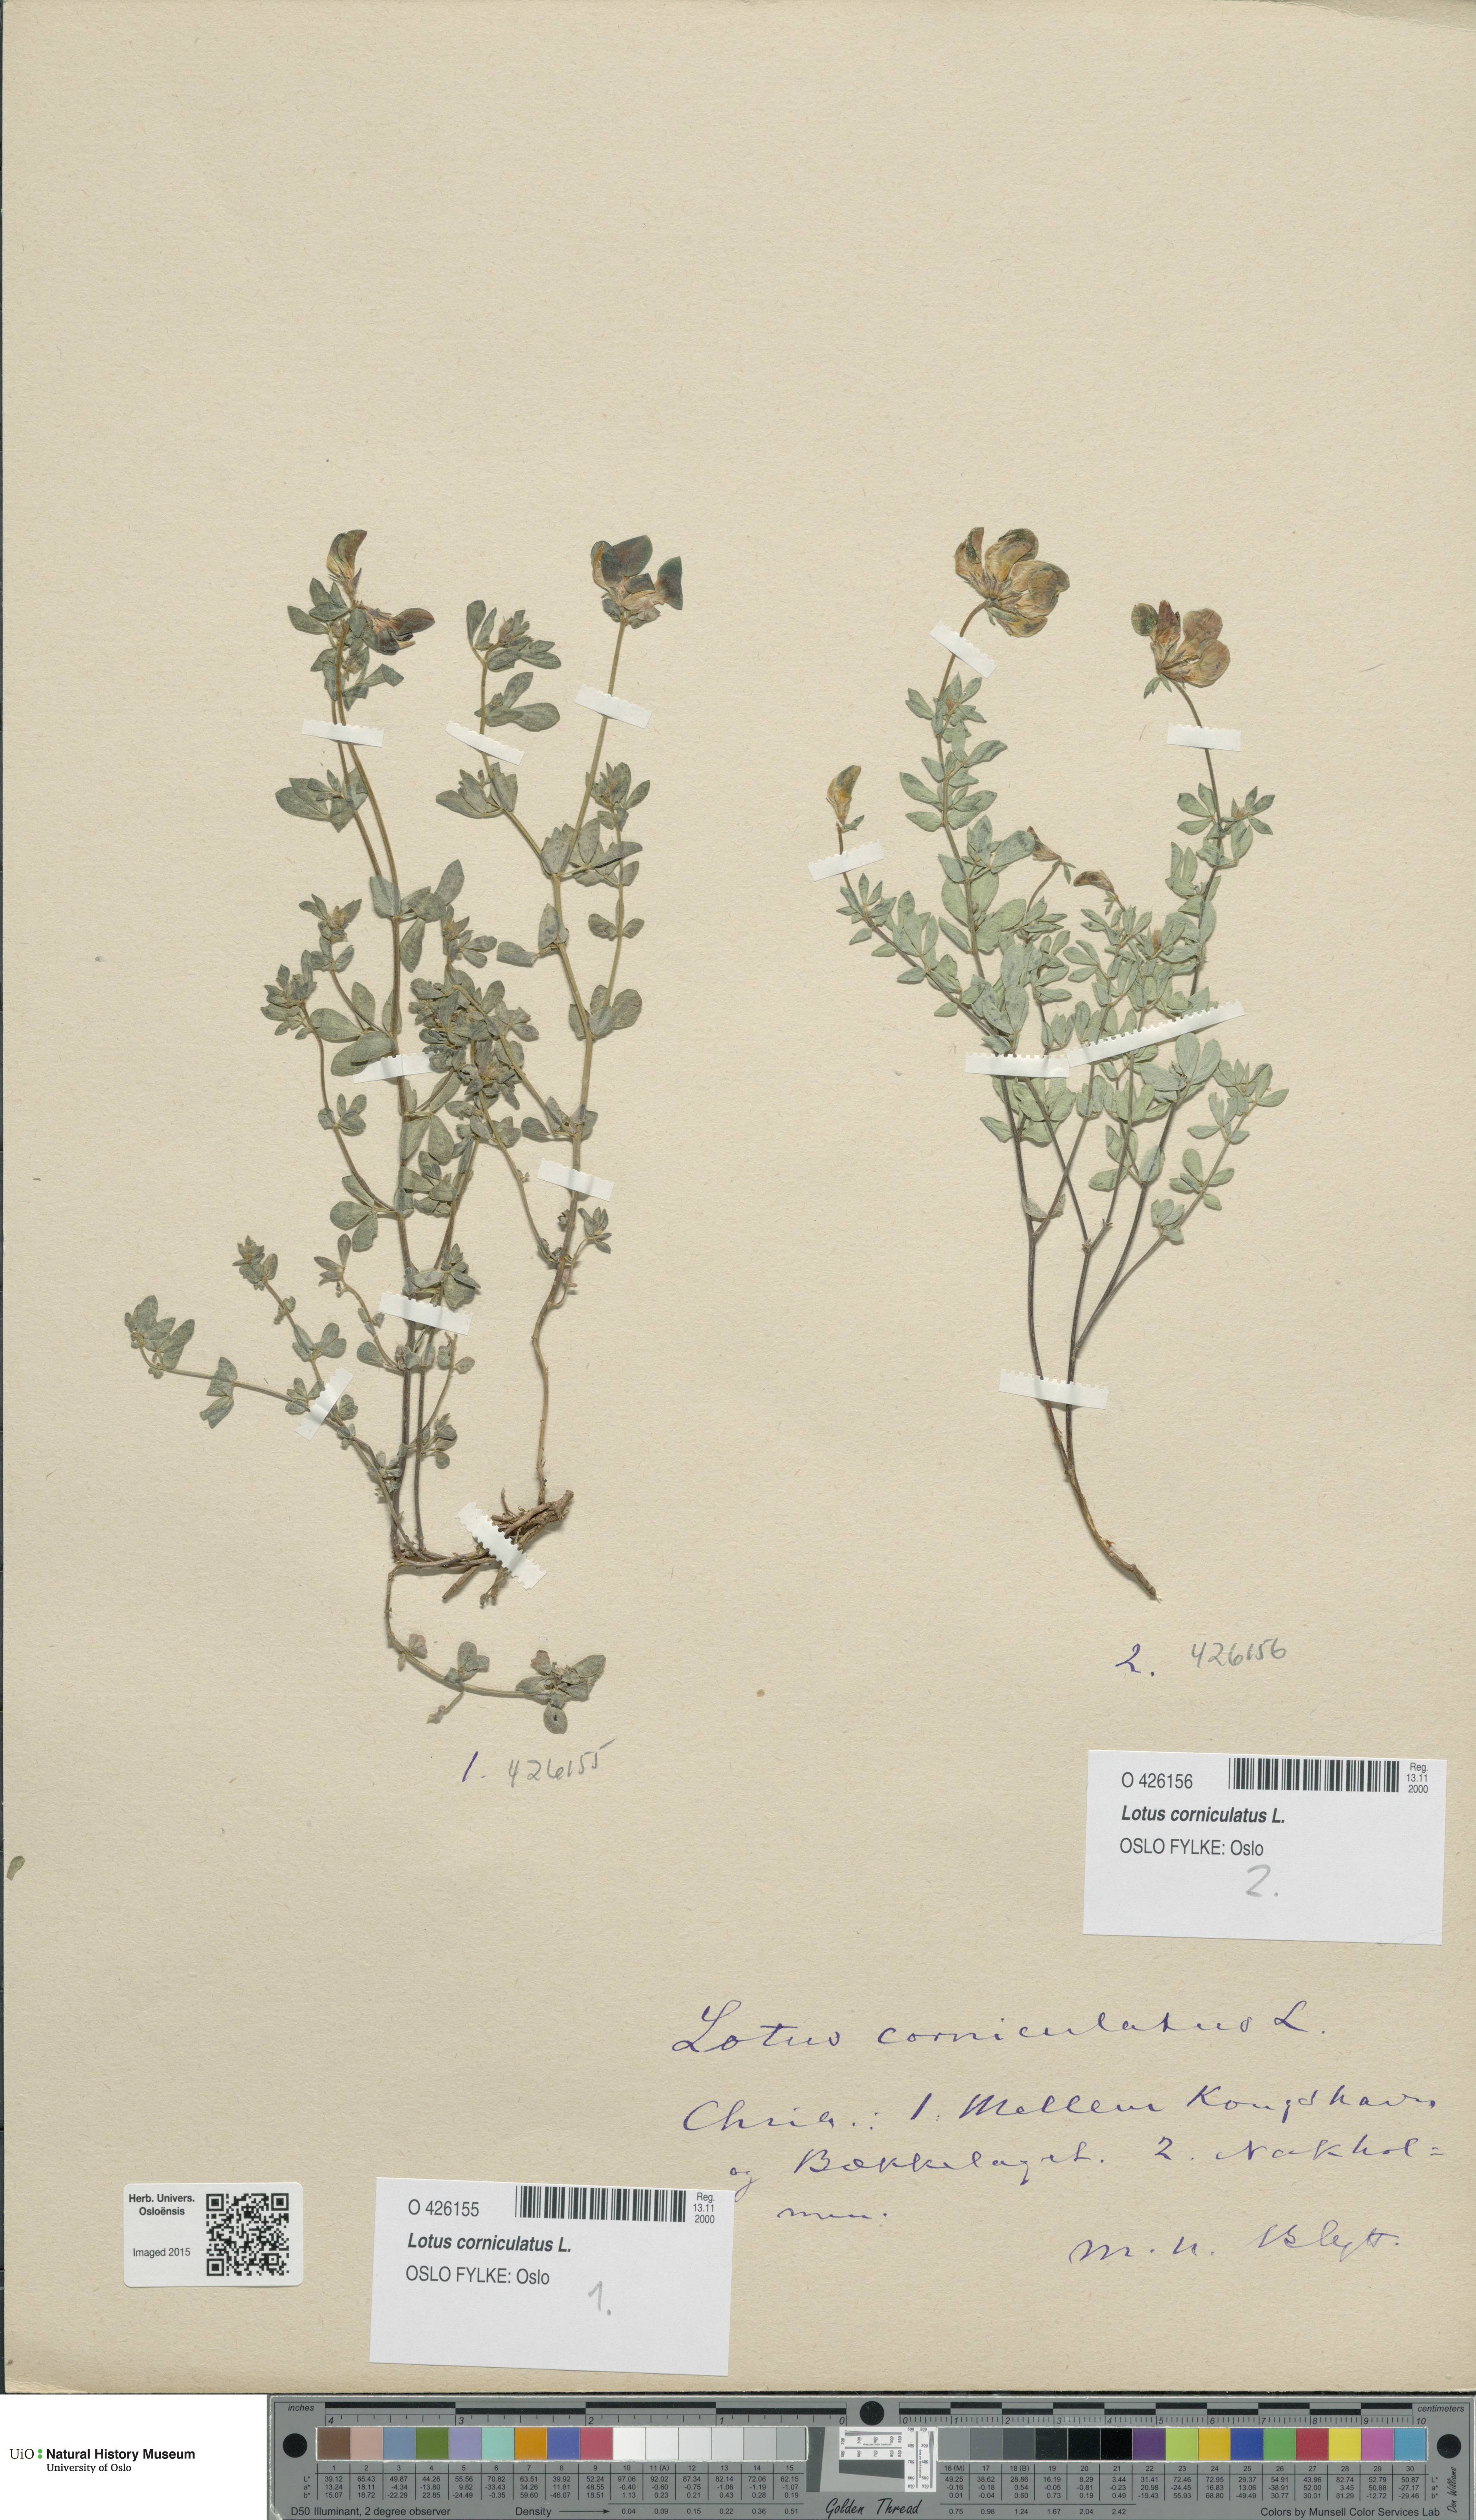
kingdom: Plantae
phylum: Tracheophyta
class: Magnoliopsida
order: Fabales
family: Fabaceae
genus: Lotus
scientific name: Lotus corniculatus
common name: Common bird's-foot-trefoil
